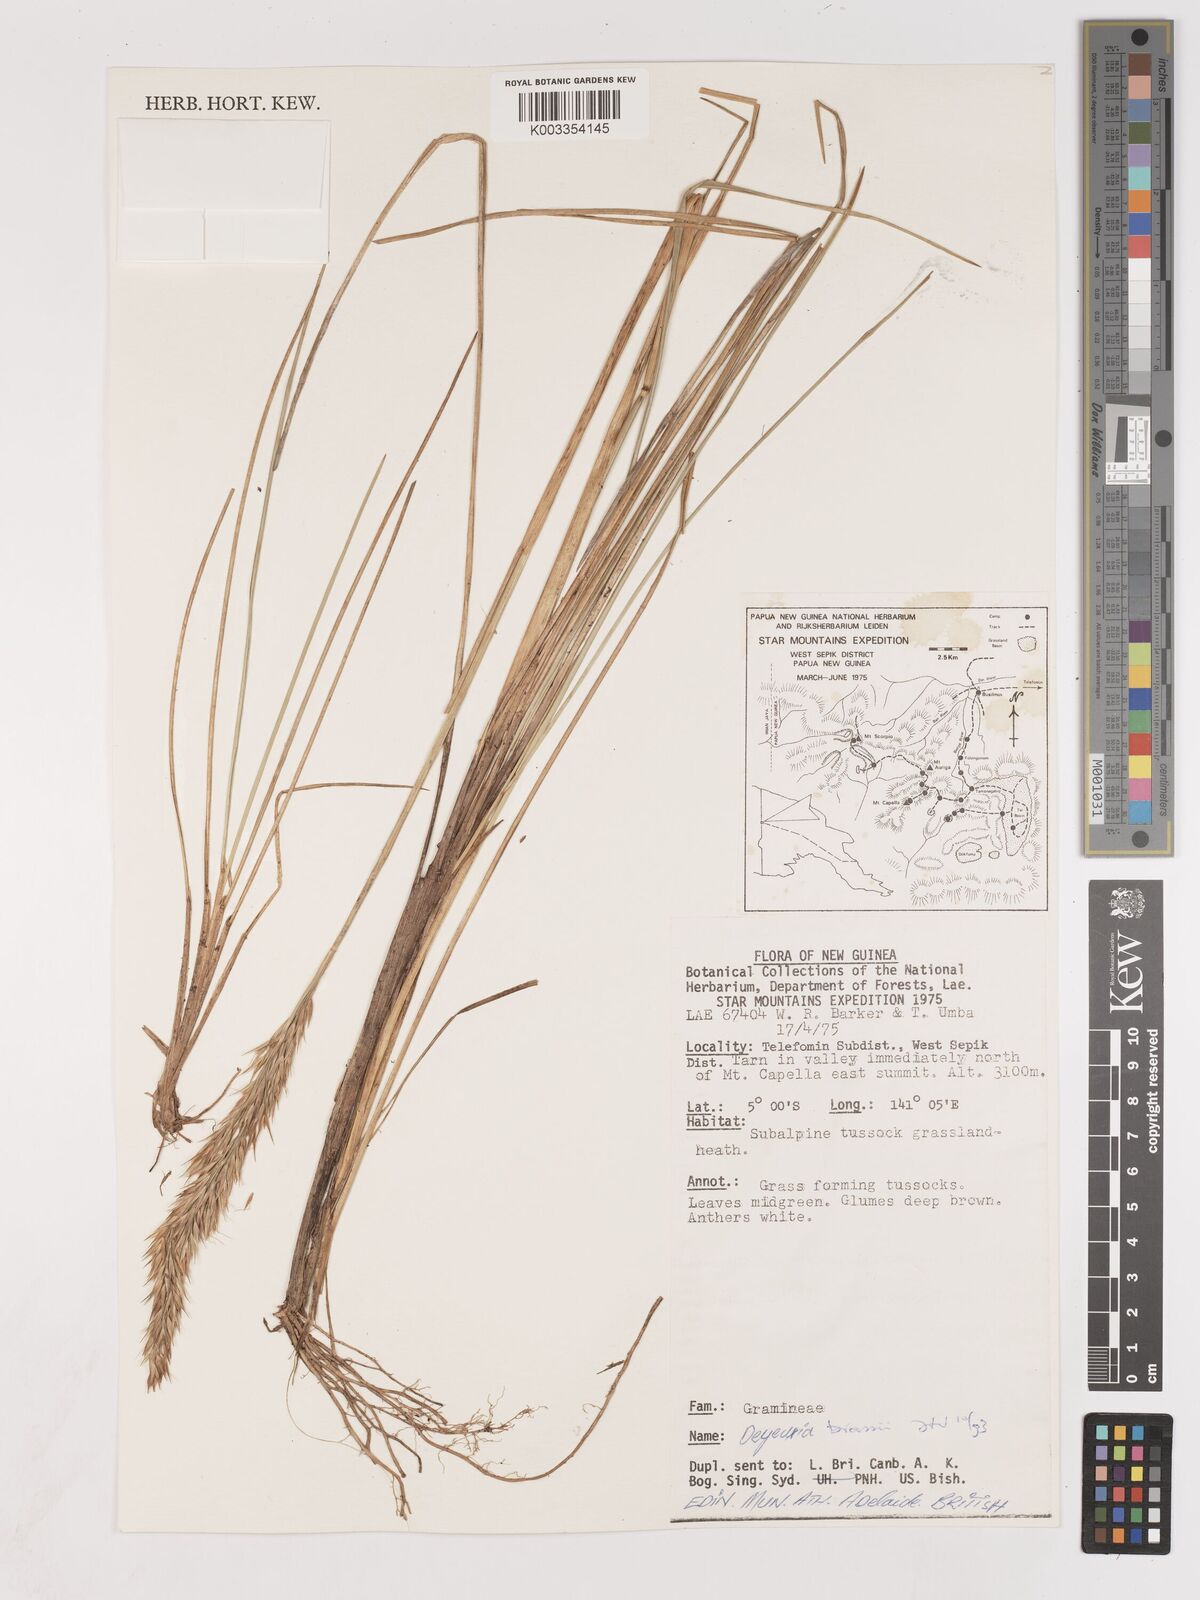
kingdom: Plantae
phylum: Tracheophyta
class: Liliopsida
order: Poales
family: Poaceae
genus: Calamagrostis
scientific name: Calamagrostis brassii
